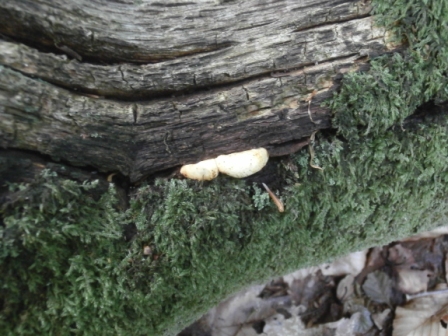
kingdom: Fungi
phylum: Basidiomycota
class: Agaricomycetes
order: Polyporales
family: Fomitopsidaceae
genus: Buglossoporus
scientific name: Buglossoporus quercinus
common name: egetunge
